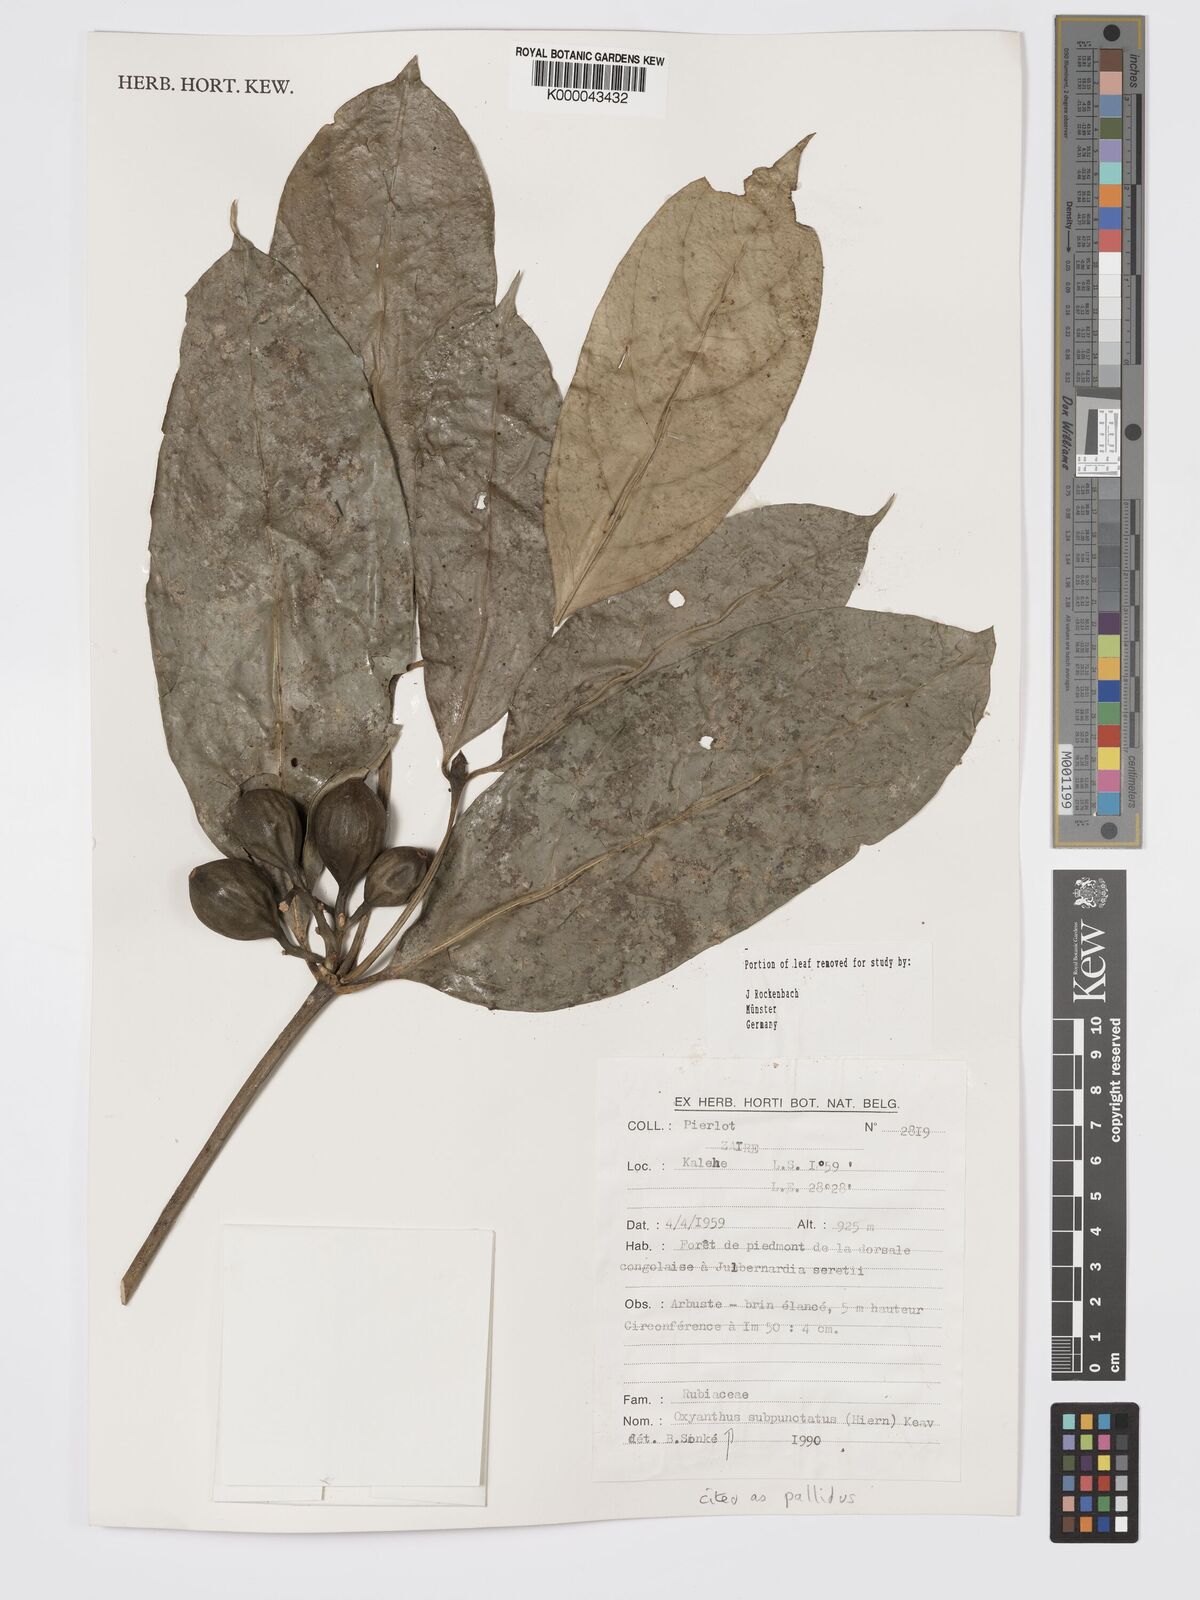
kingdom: Plantae
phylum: Tracheophyta
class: Magnoliopsida
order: Gentianales
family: Rubiaceae
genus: Oxyanthus
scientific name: Oxyanthus pallidus
